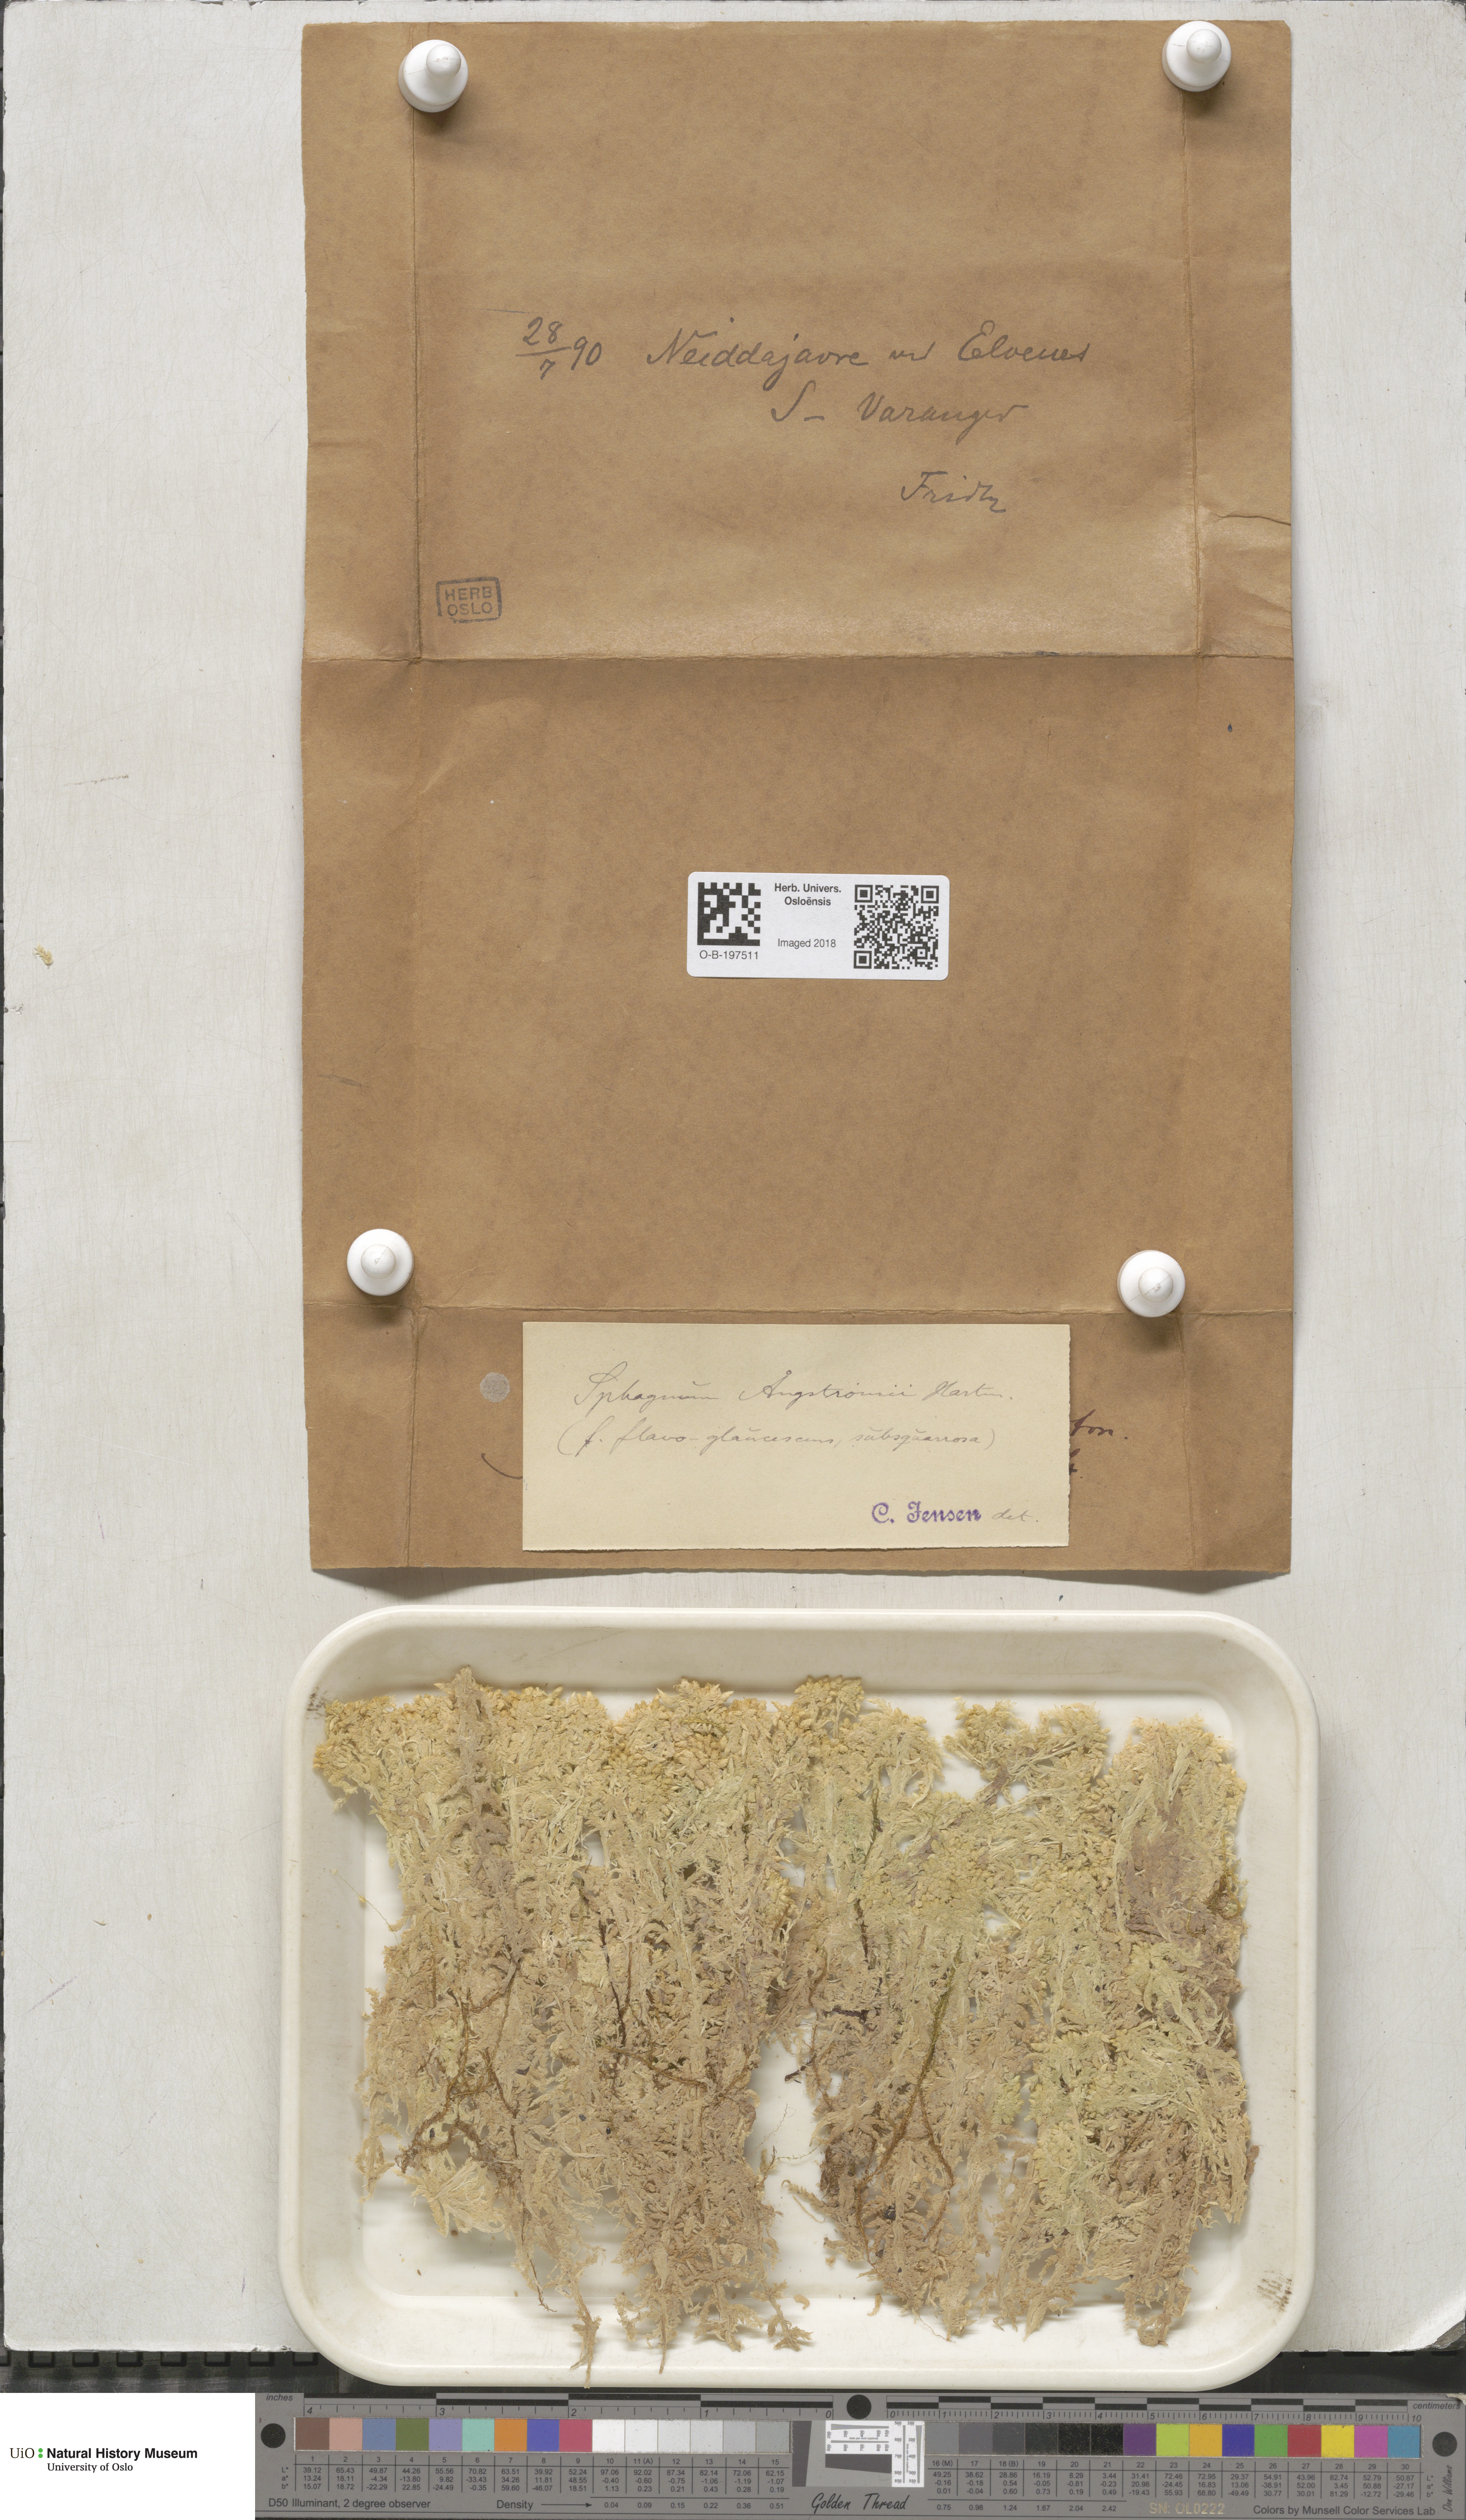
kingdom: Plantae
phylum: Bryophyta
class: Sphagnopsida
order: Sphagnales
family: Sphagnaceae
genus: Sphagnum
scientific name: Sphagnum aongstroemii
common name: Aongstroem's peat moss
